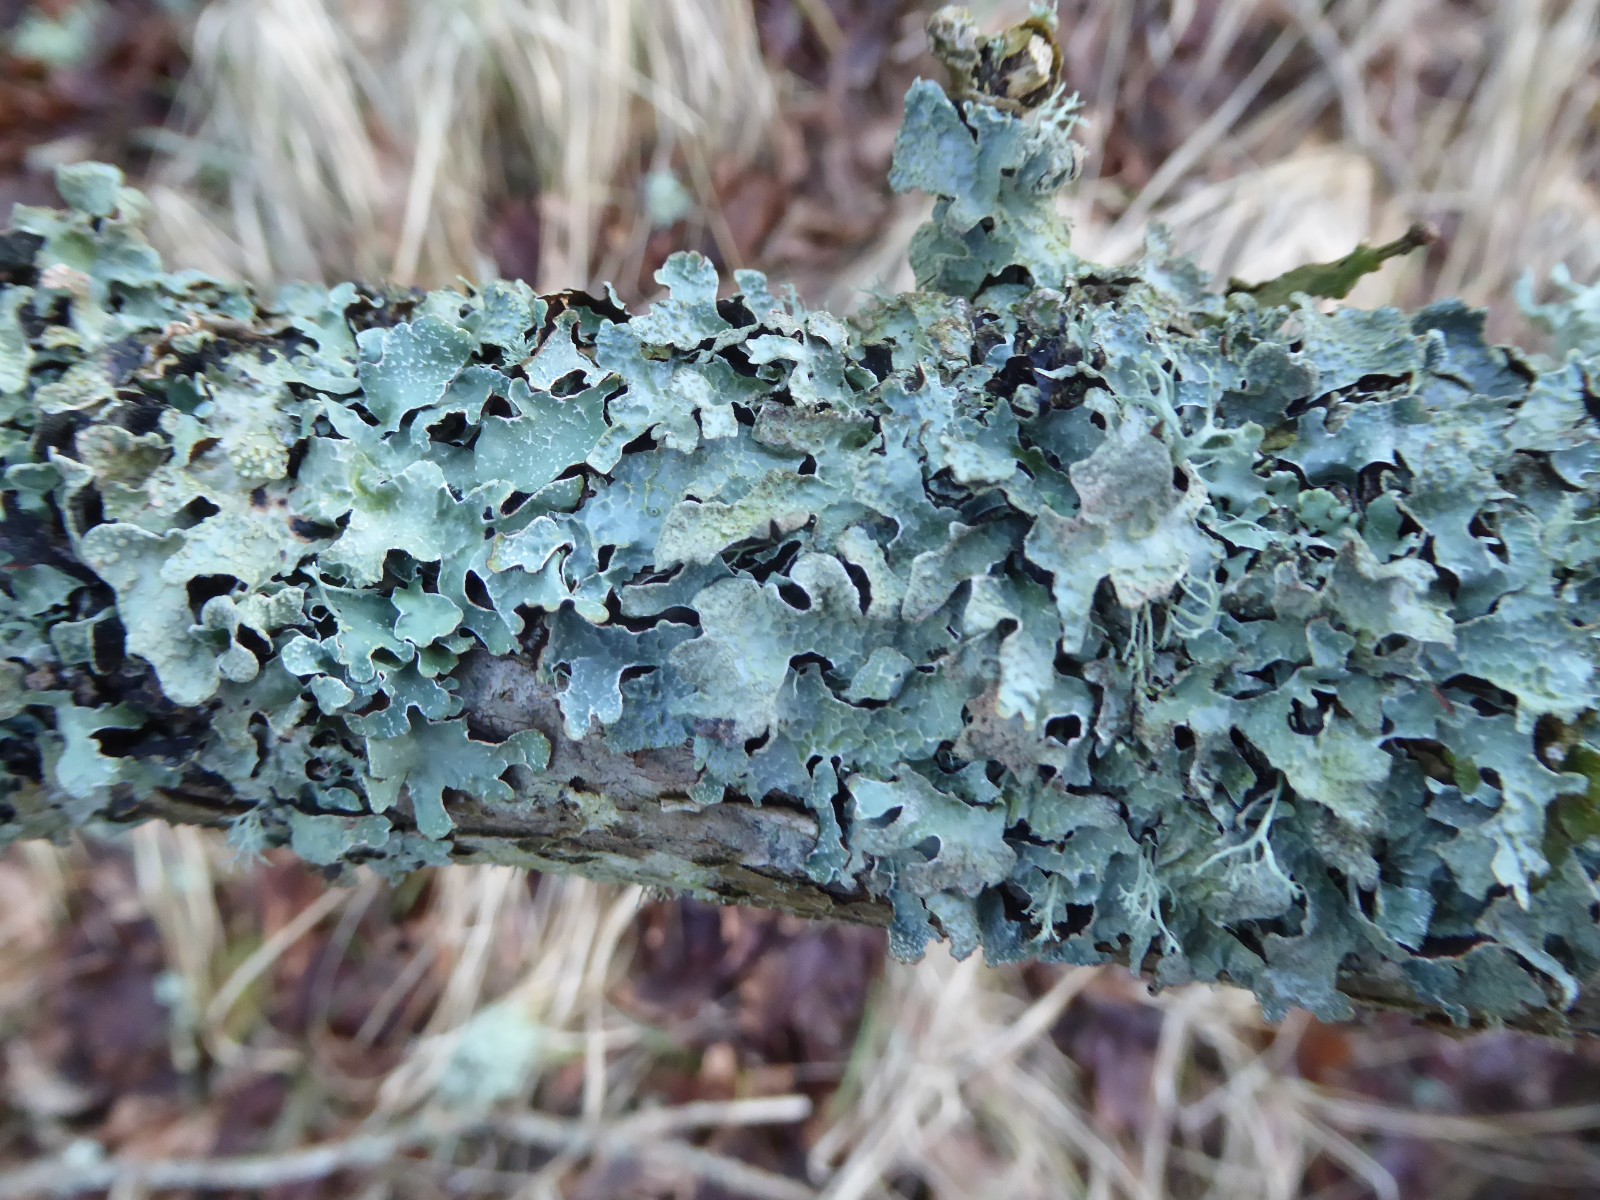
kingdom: Fungi
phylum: Ascomycota
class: Lecanoromycetes
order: Lecanorales
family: Parmeliaceae
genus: Parmelia
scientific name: Parmelia sulcata
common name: rynket skållav
